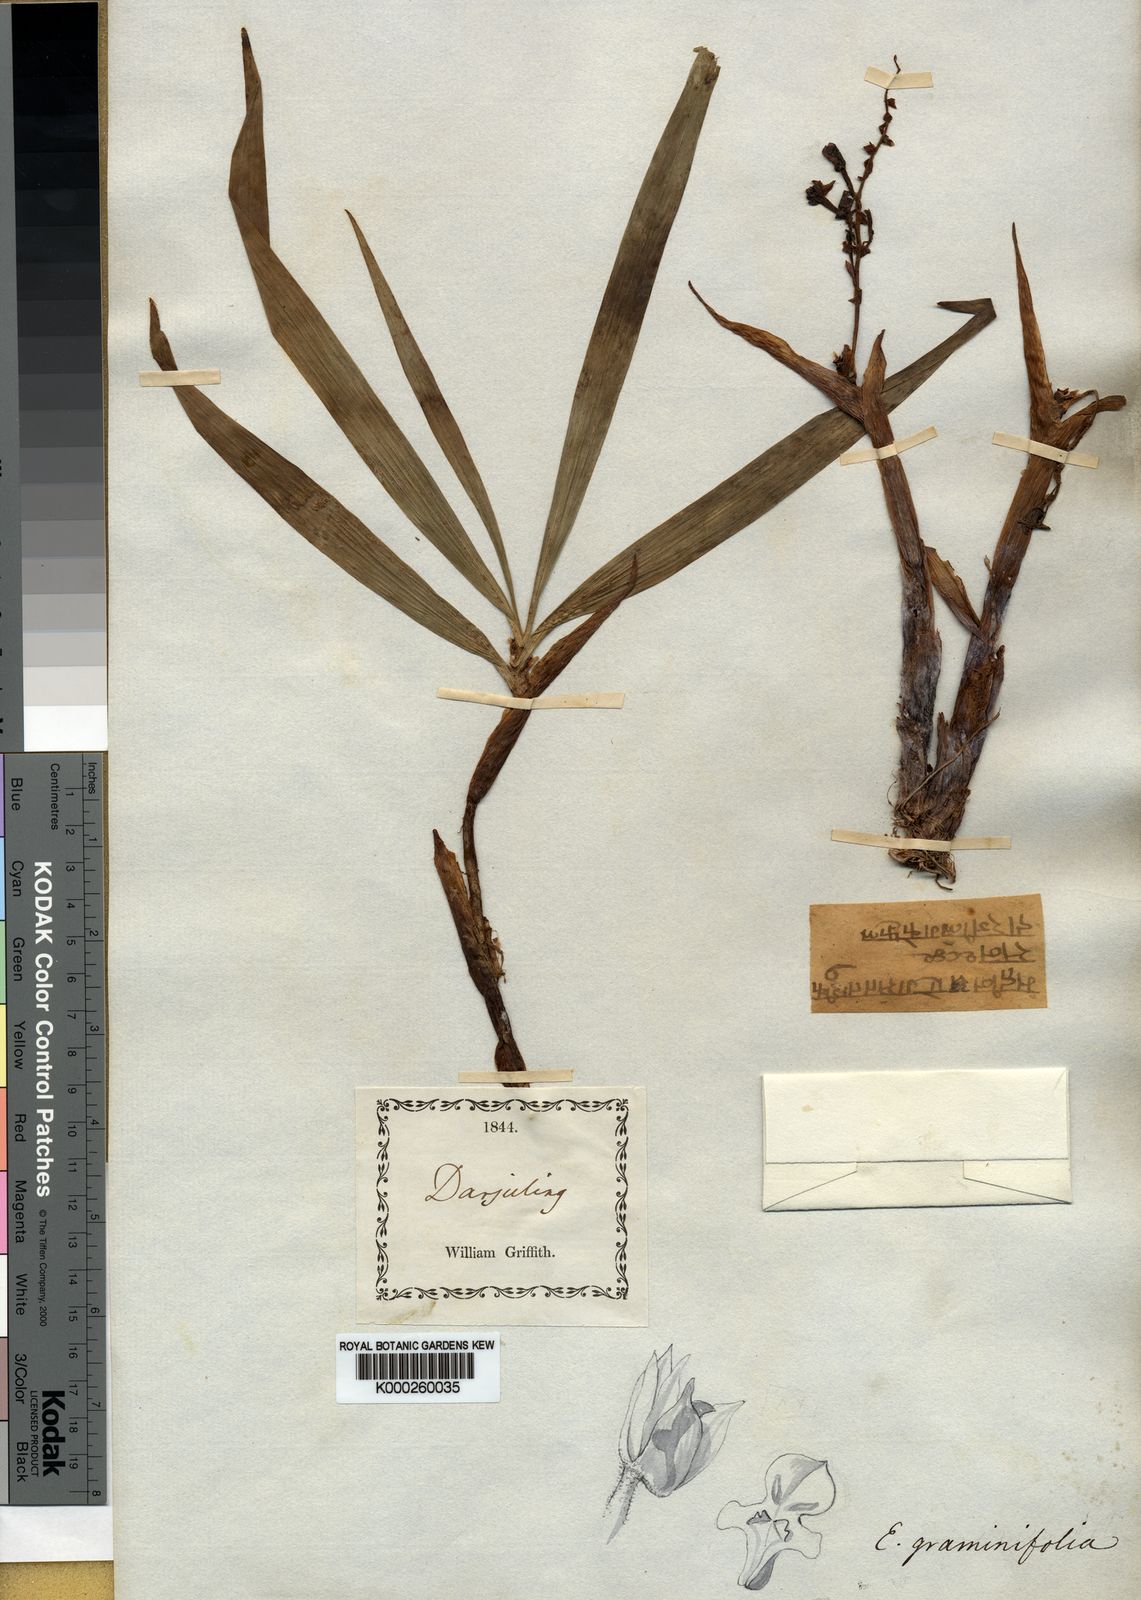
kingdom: Plantae
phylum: Tracheophyta
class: Liliopsida
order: Asparagales
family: Orchidaceae
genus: Pinalia
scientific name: Pinalia graminifolia
